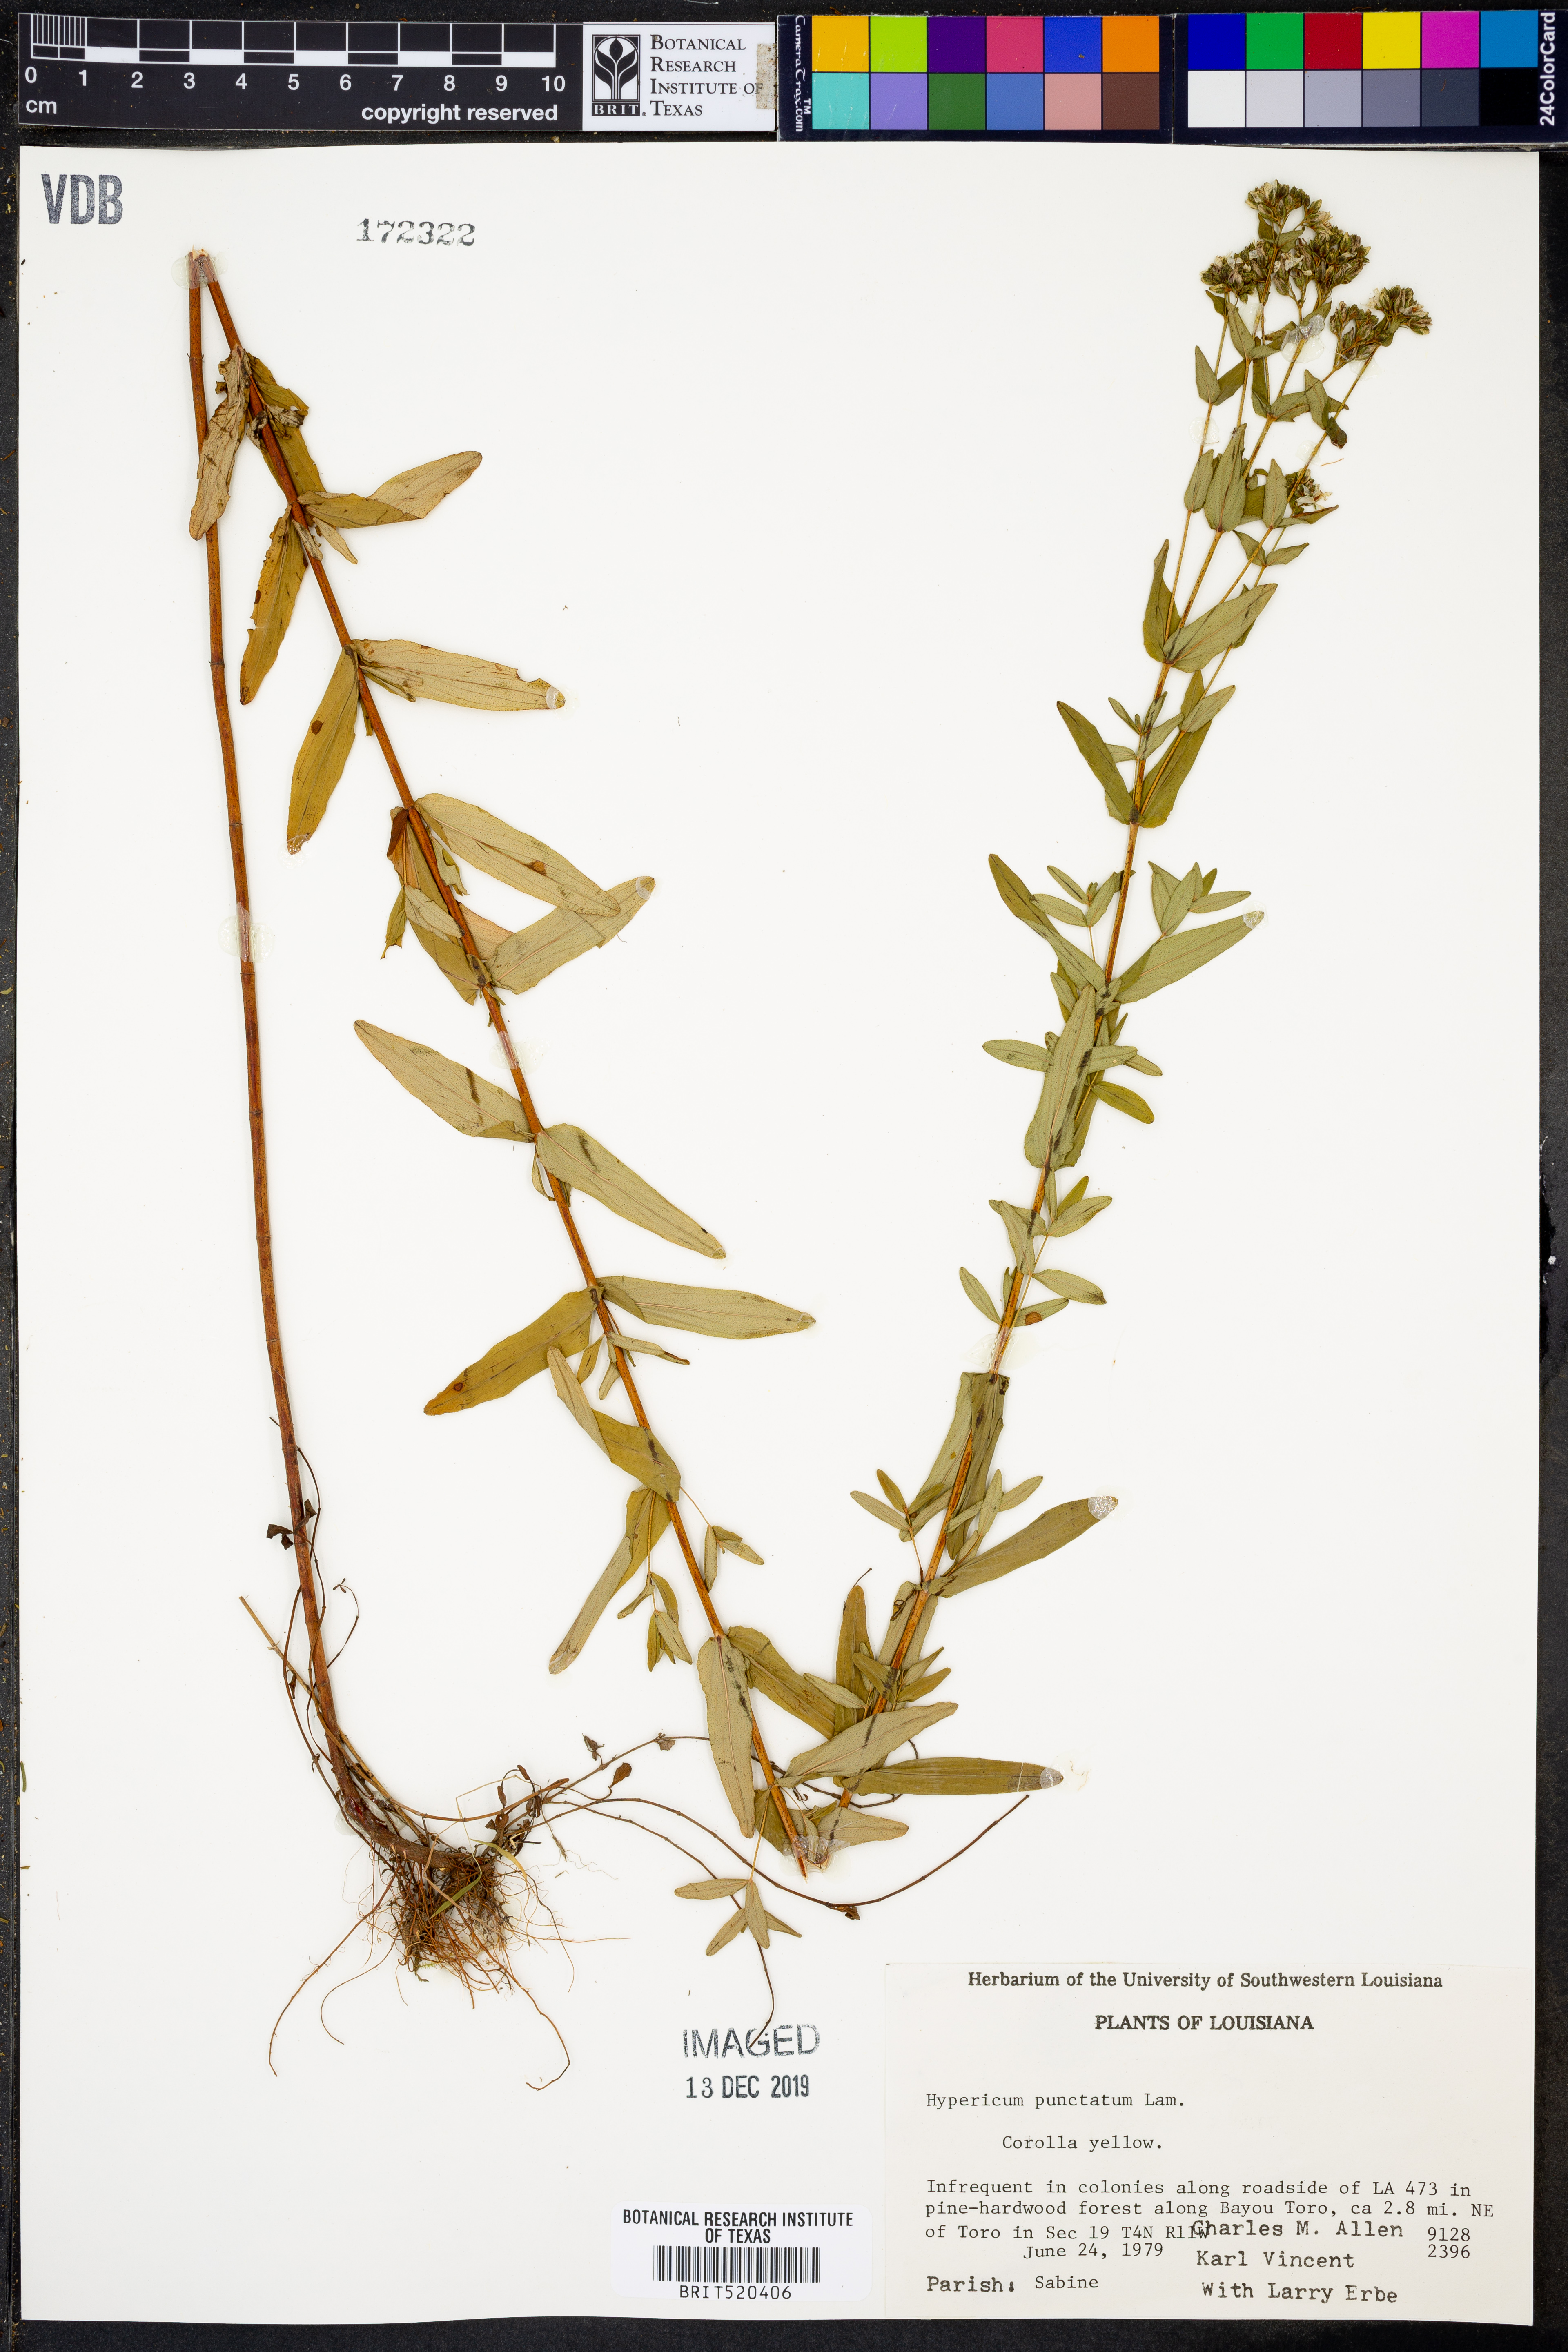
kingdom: Plantae
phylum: Tracheophyta
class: Magnoliopsida
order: Malpighiales
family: Hypericaceae
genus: Hypericum
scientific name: Hypericum punctatum
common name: Spotted st. john's-wort
